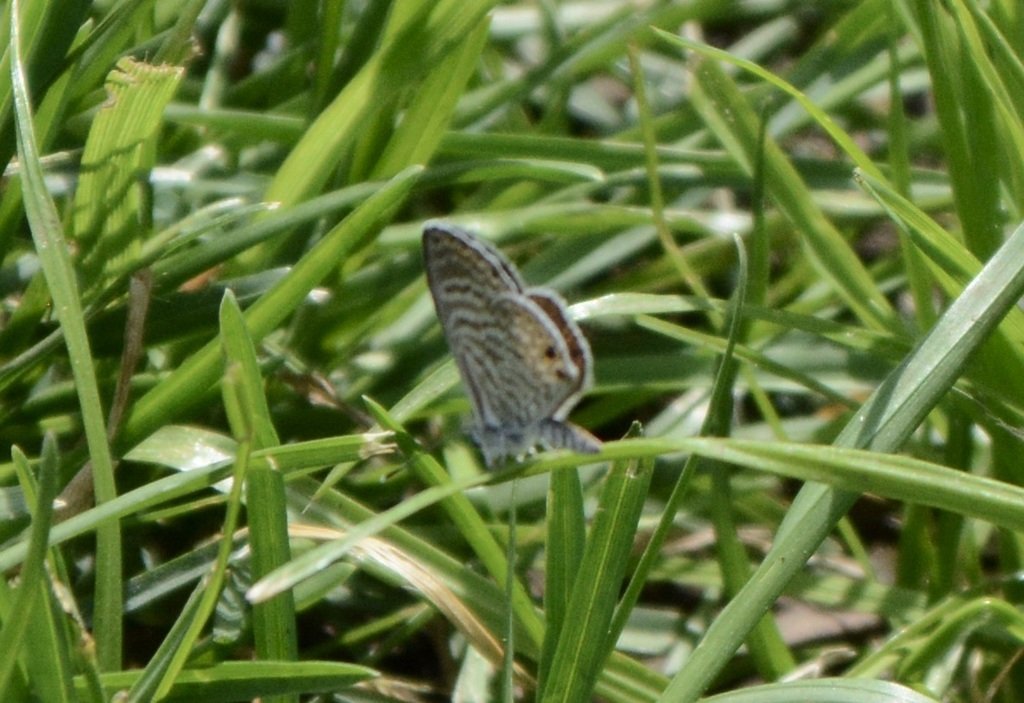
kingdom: Animalia
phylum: Arthropoda
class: Insecta
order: Lepidoptera
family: Lycaenidae
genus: Leptotes
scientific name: Leptotes marina
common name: Marine Blue
